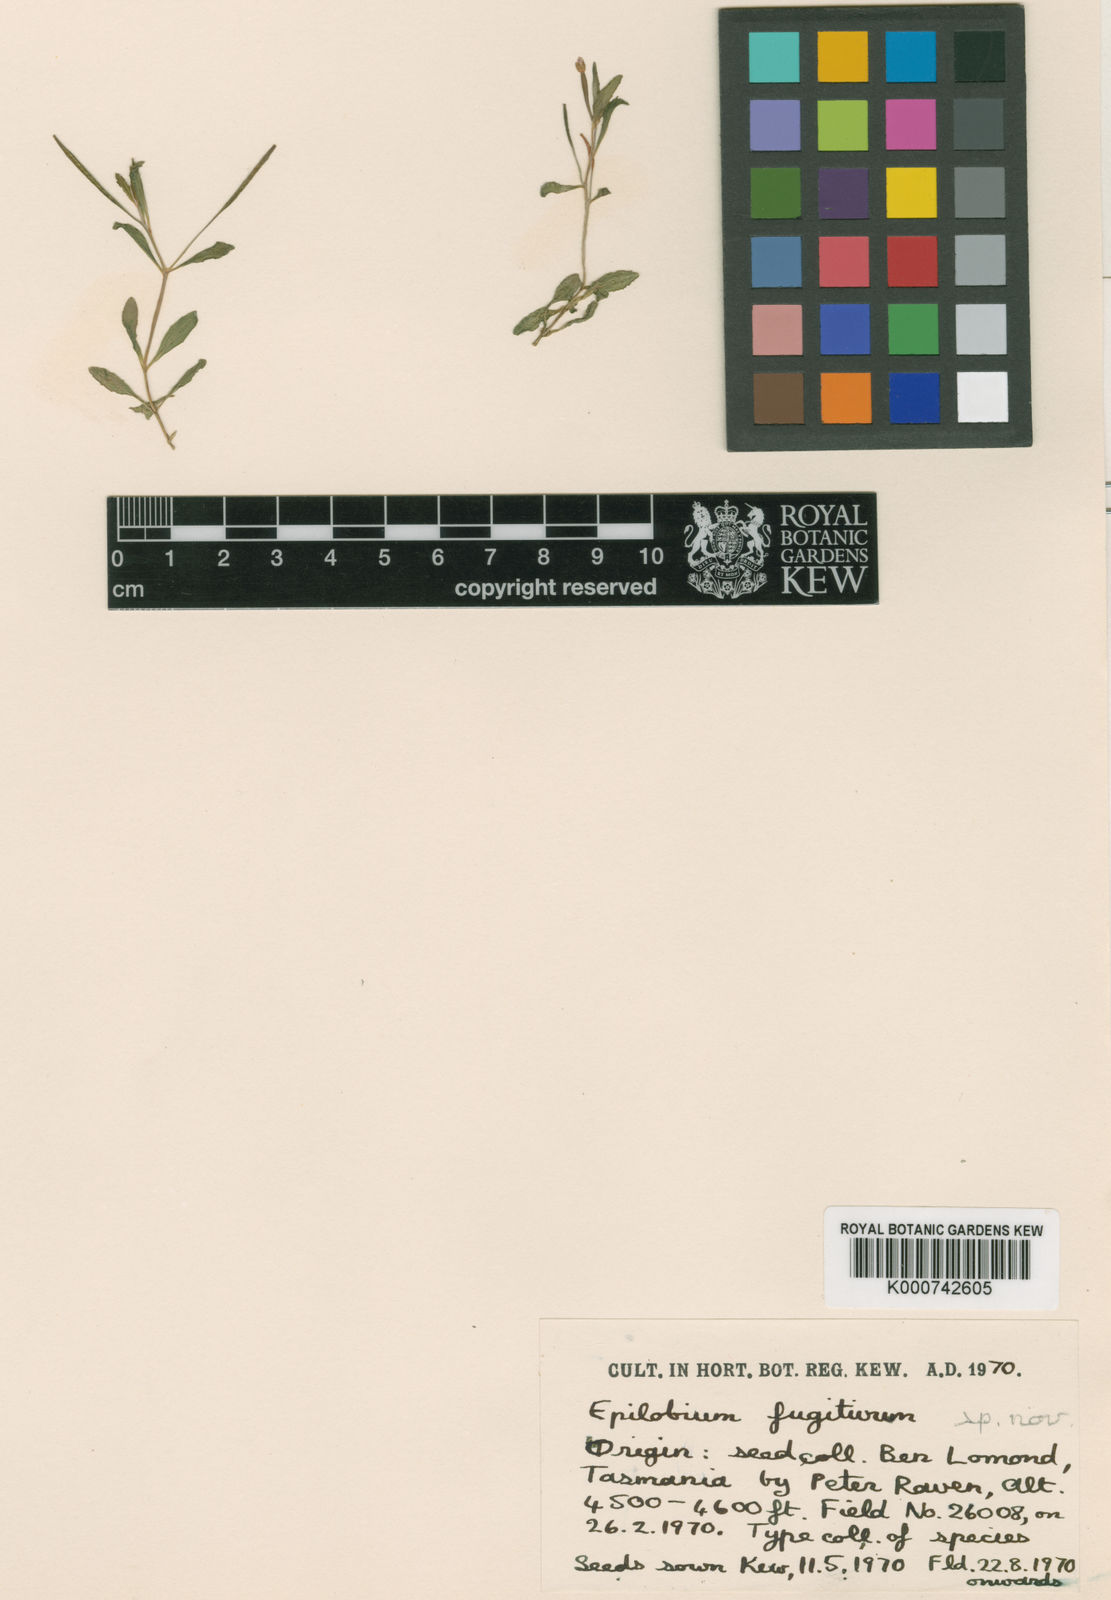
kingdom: Plantae
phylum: Tracheophyta
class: Magnoliopsida
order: Myrtales
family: Onagraceae
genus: Epilobium
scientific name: Epilobium fugitivum
